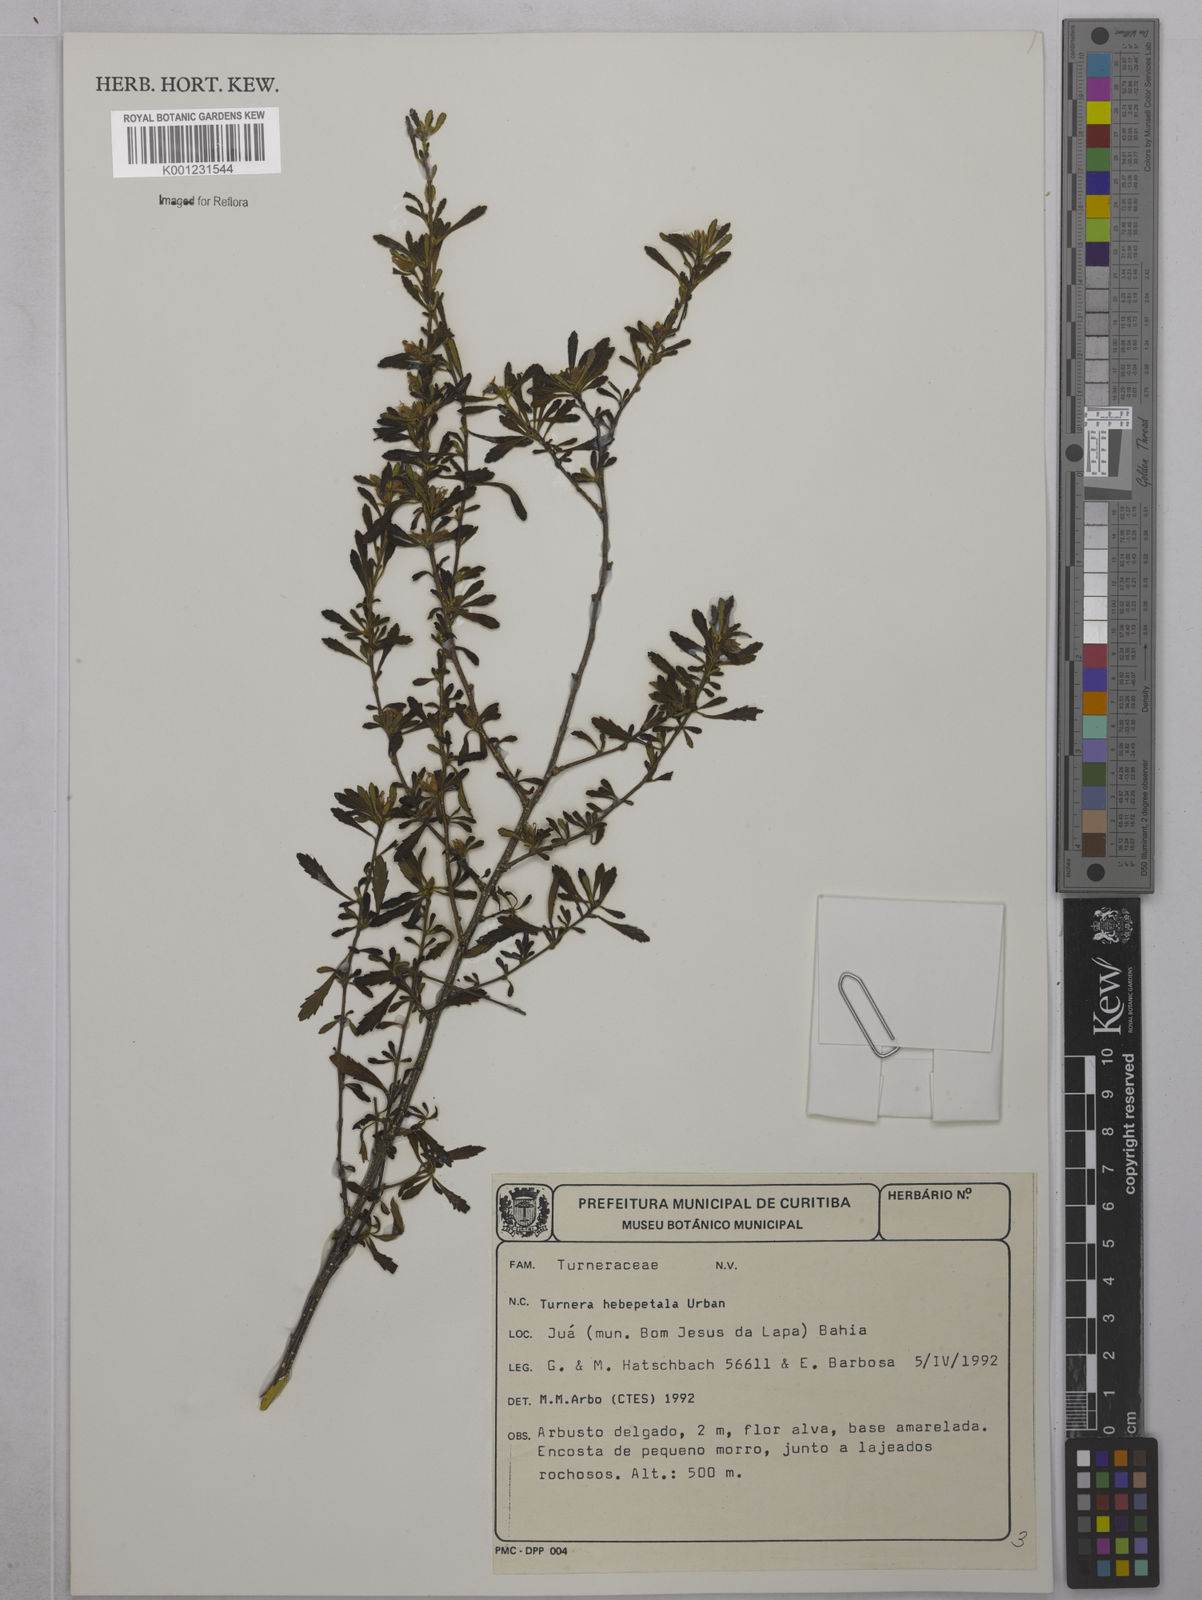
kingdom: Plantae
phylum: Tracheophyta
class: Magnoliopsida
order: Malpighiales
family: Turneraceae
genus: Oxossia
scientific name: Oxossia hebepetala
